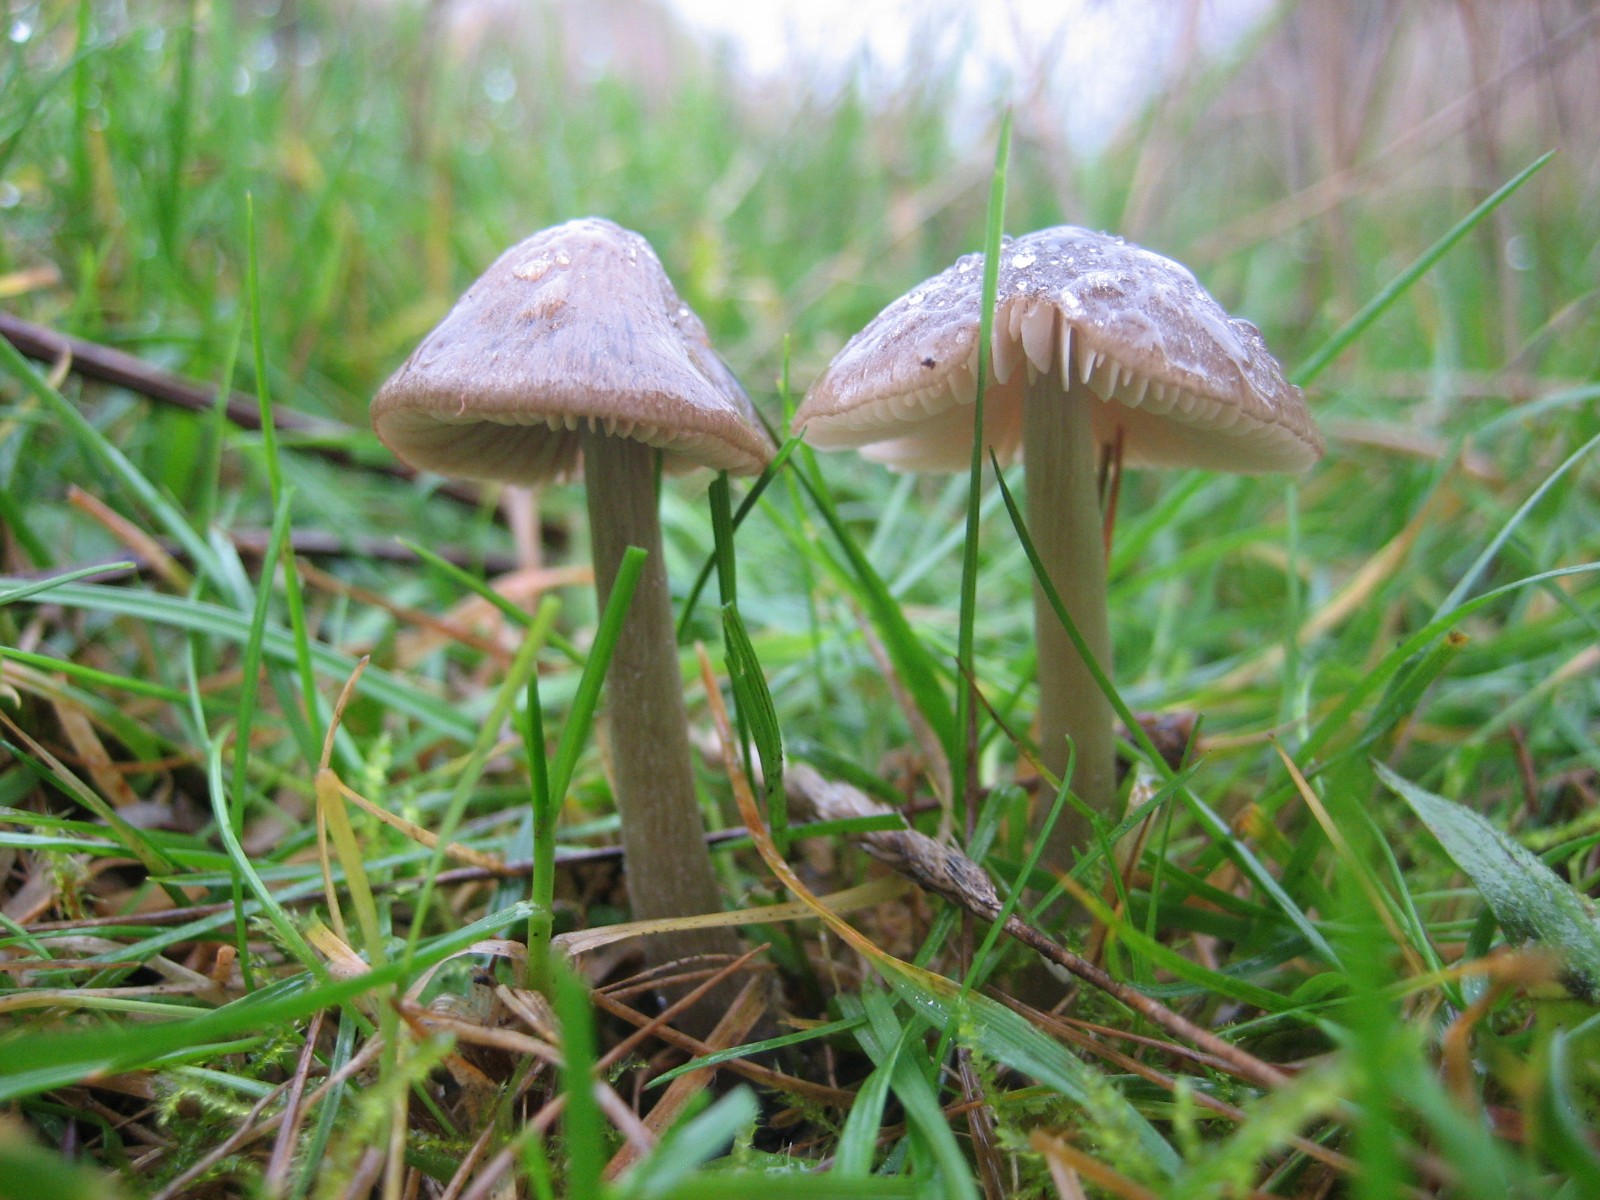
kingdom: Fungi
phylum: Basidiomycota
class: Agaricomycetes
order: Agaricales
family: Entolomataceae
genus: Entoloma
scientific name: Entoloma
